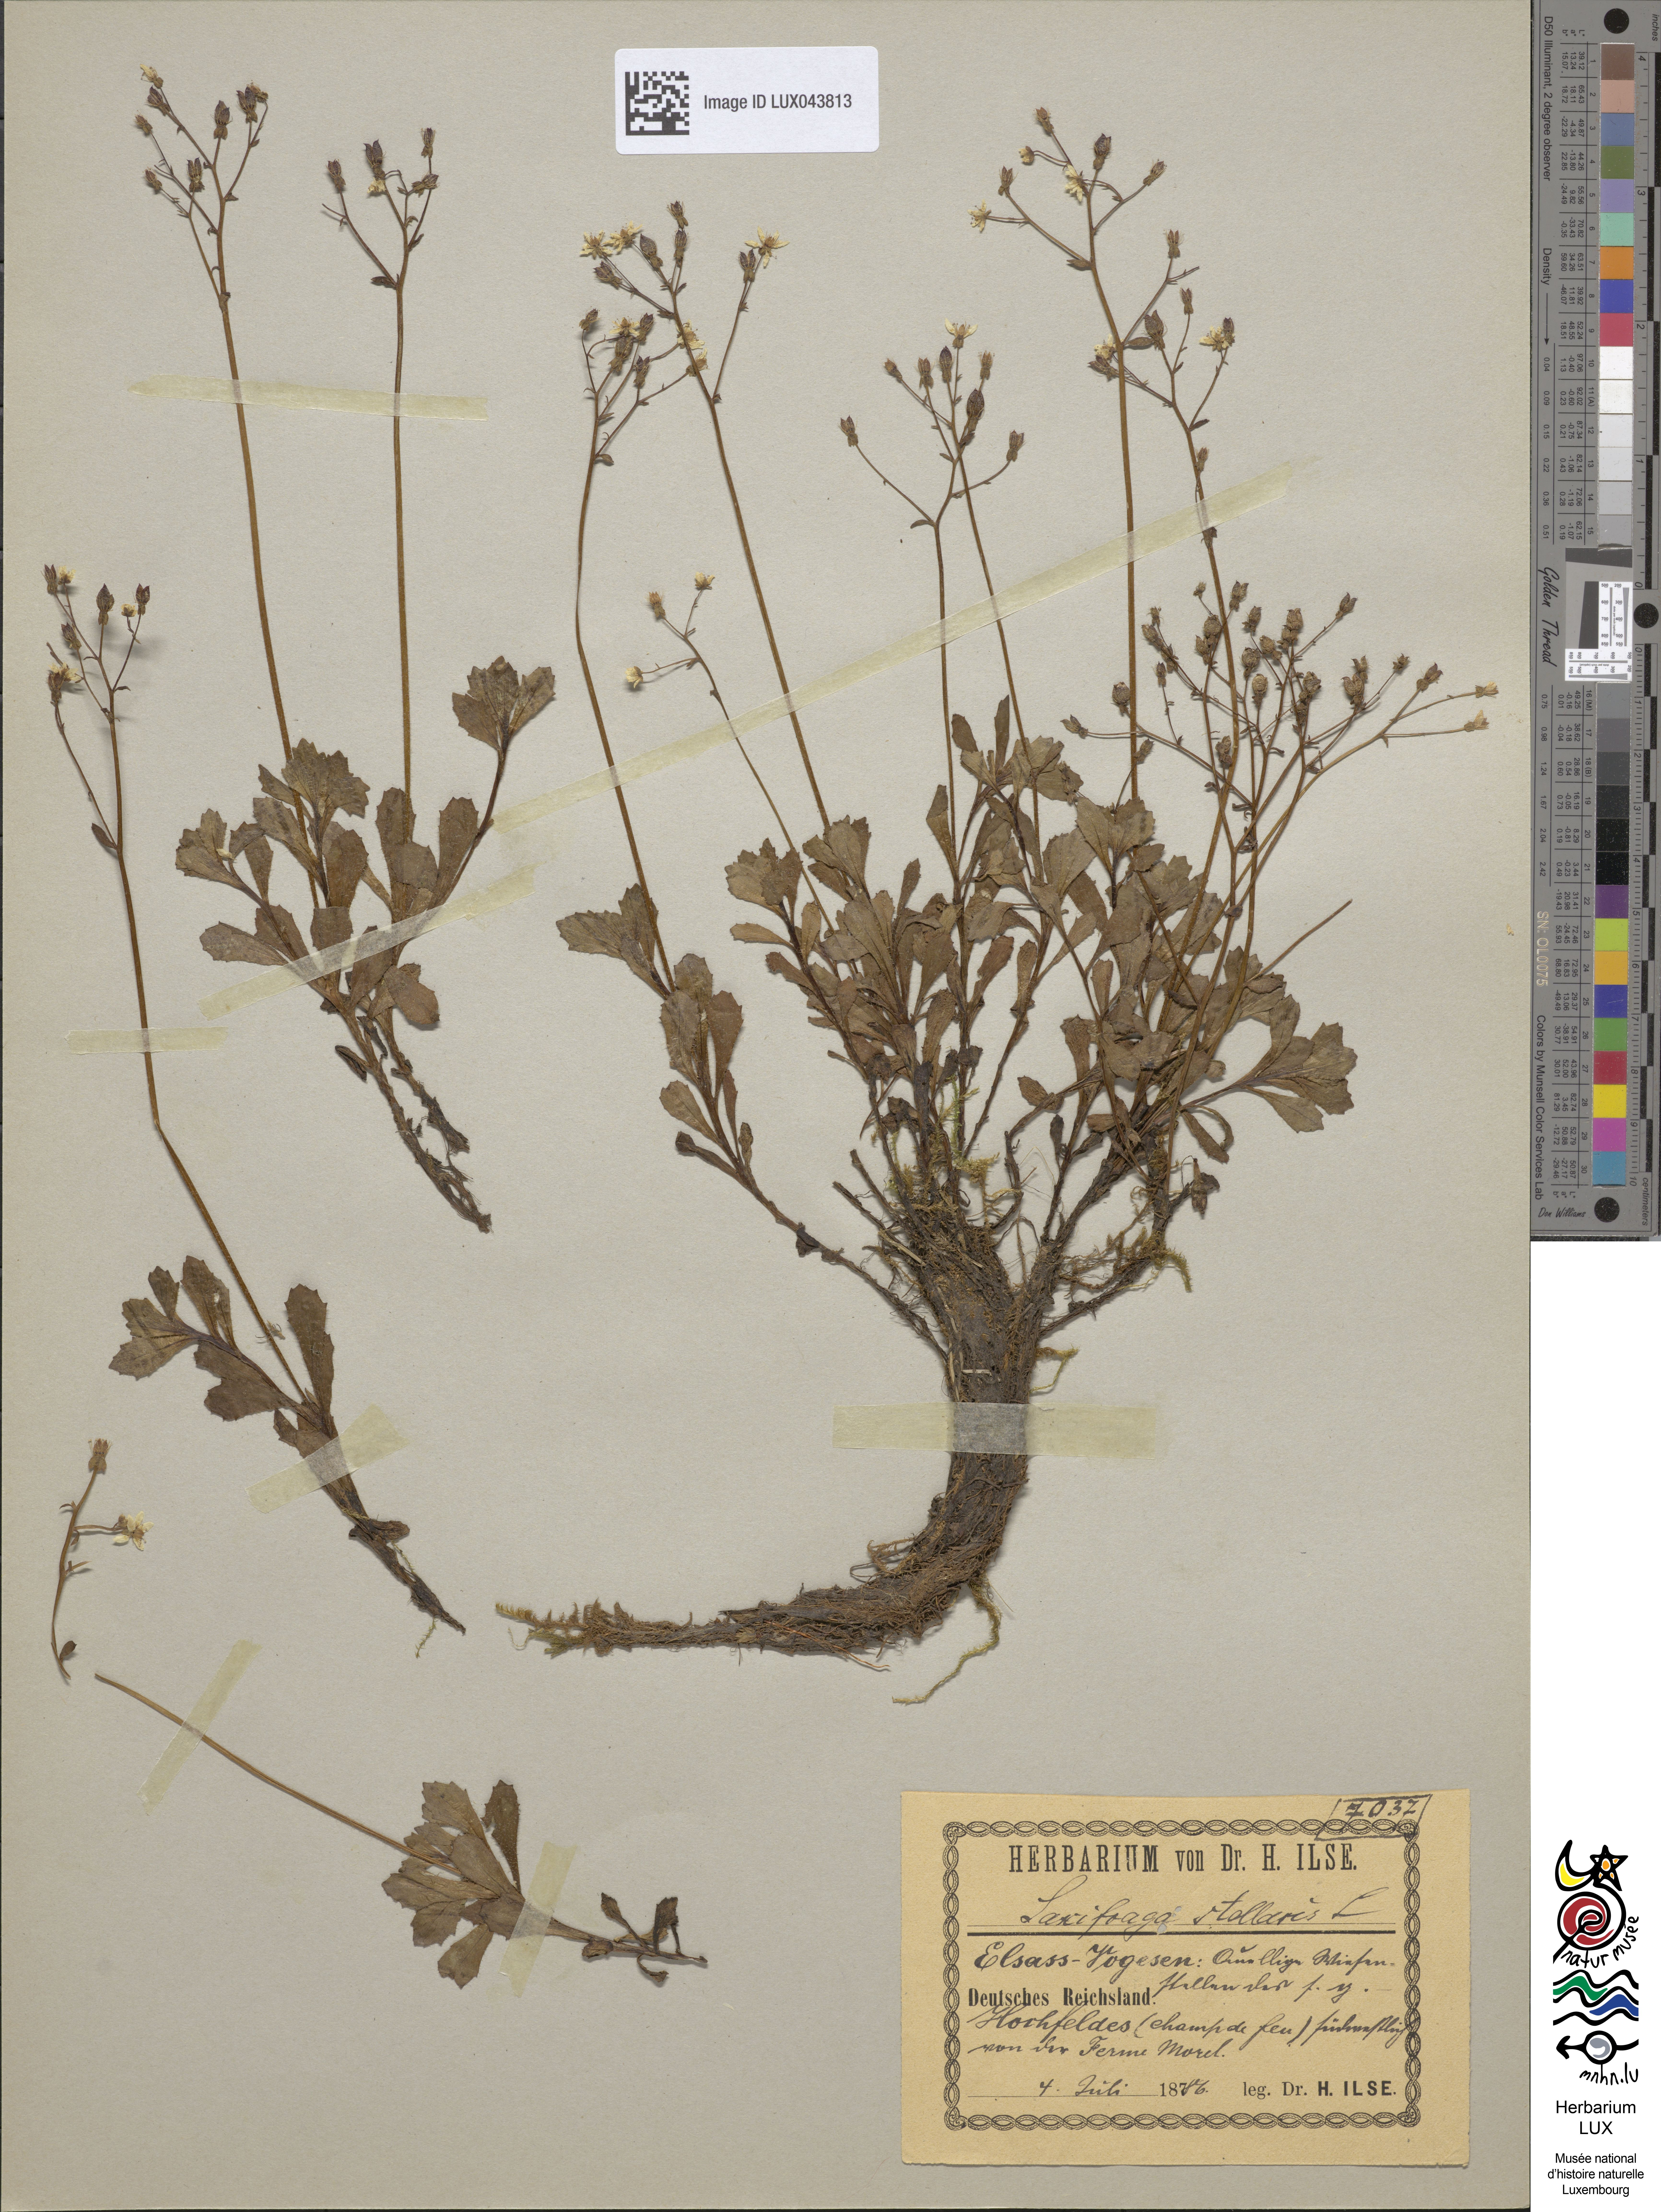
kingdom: Plantae
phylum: Tracheophyta
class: Magnoliopsida
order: Saxifragales
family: Saxifragaceae
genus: Micranthes
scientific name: Micranthes stellaris
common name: Starry saxifrage
